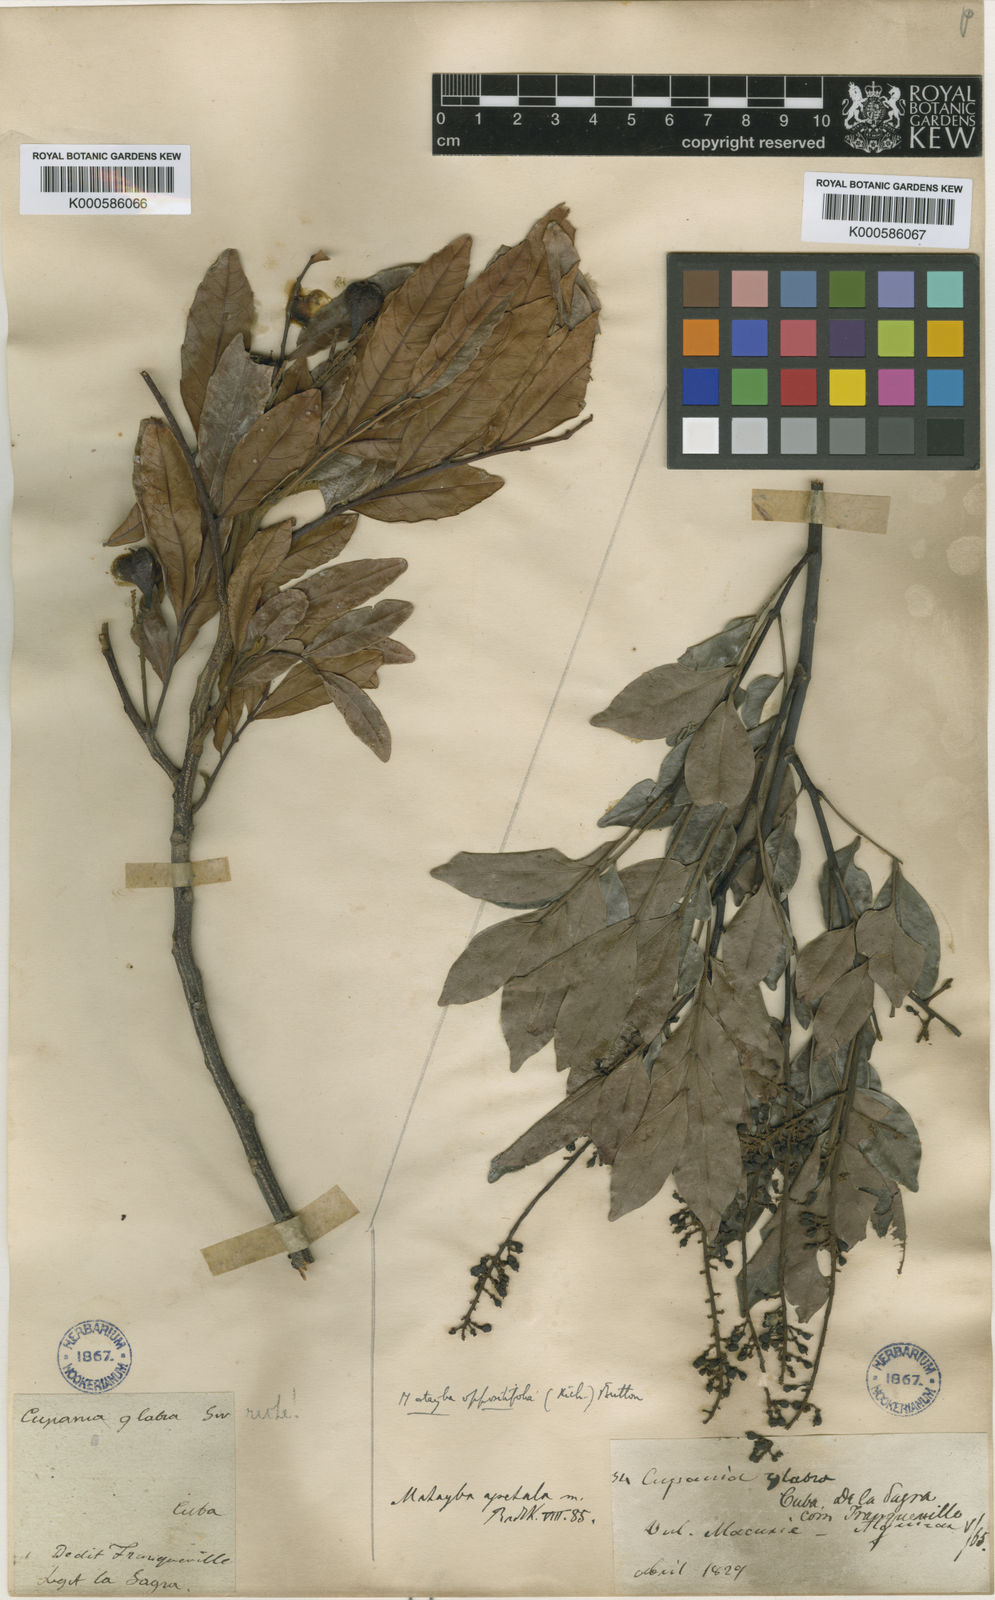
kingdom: Plantae
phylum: Tracheophyta
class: Magnoliopsida
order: Sapindales
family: Sapindaceae
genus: Matayba
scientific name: Matayba oppositifolia
